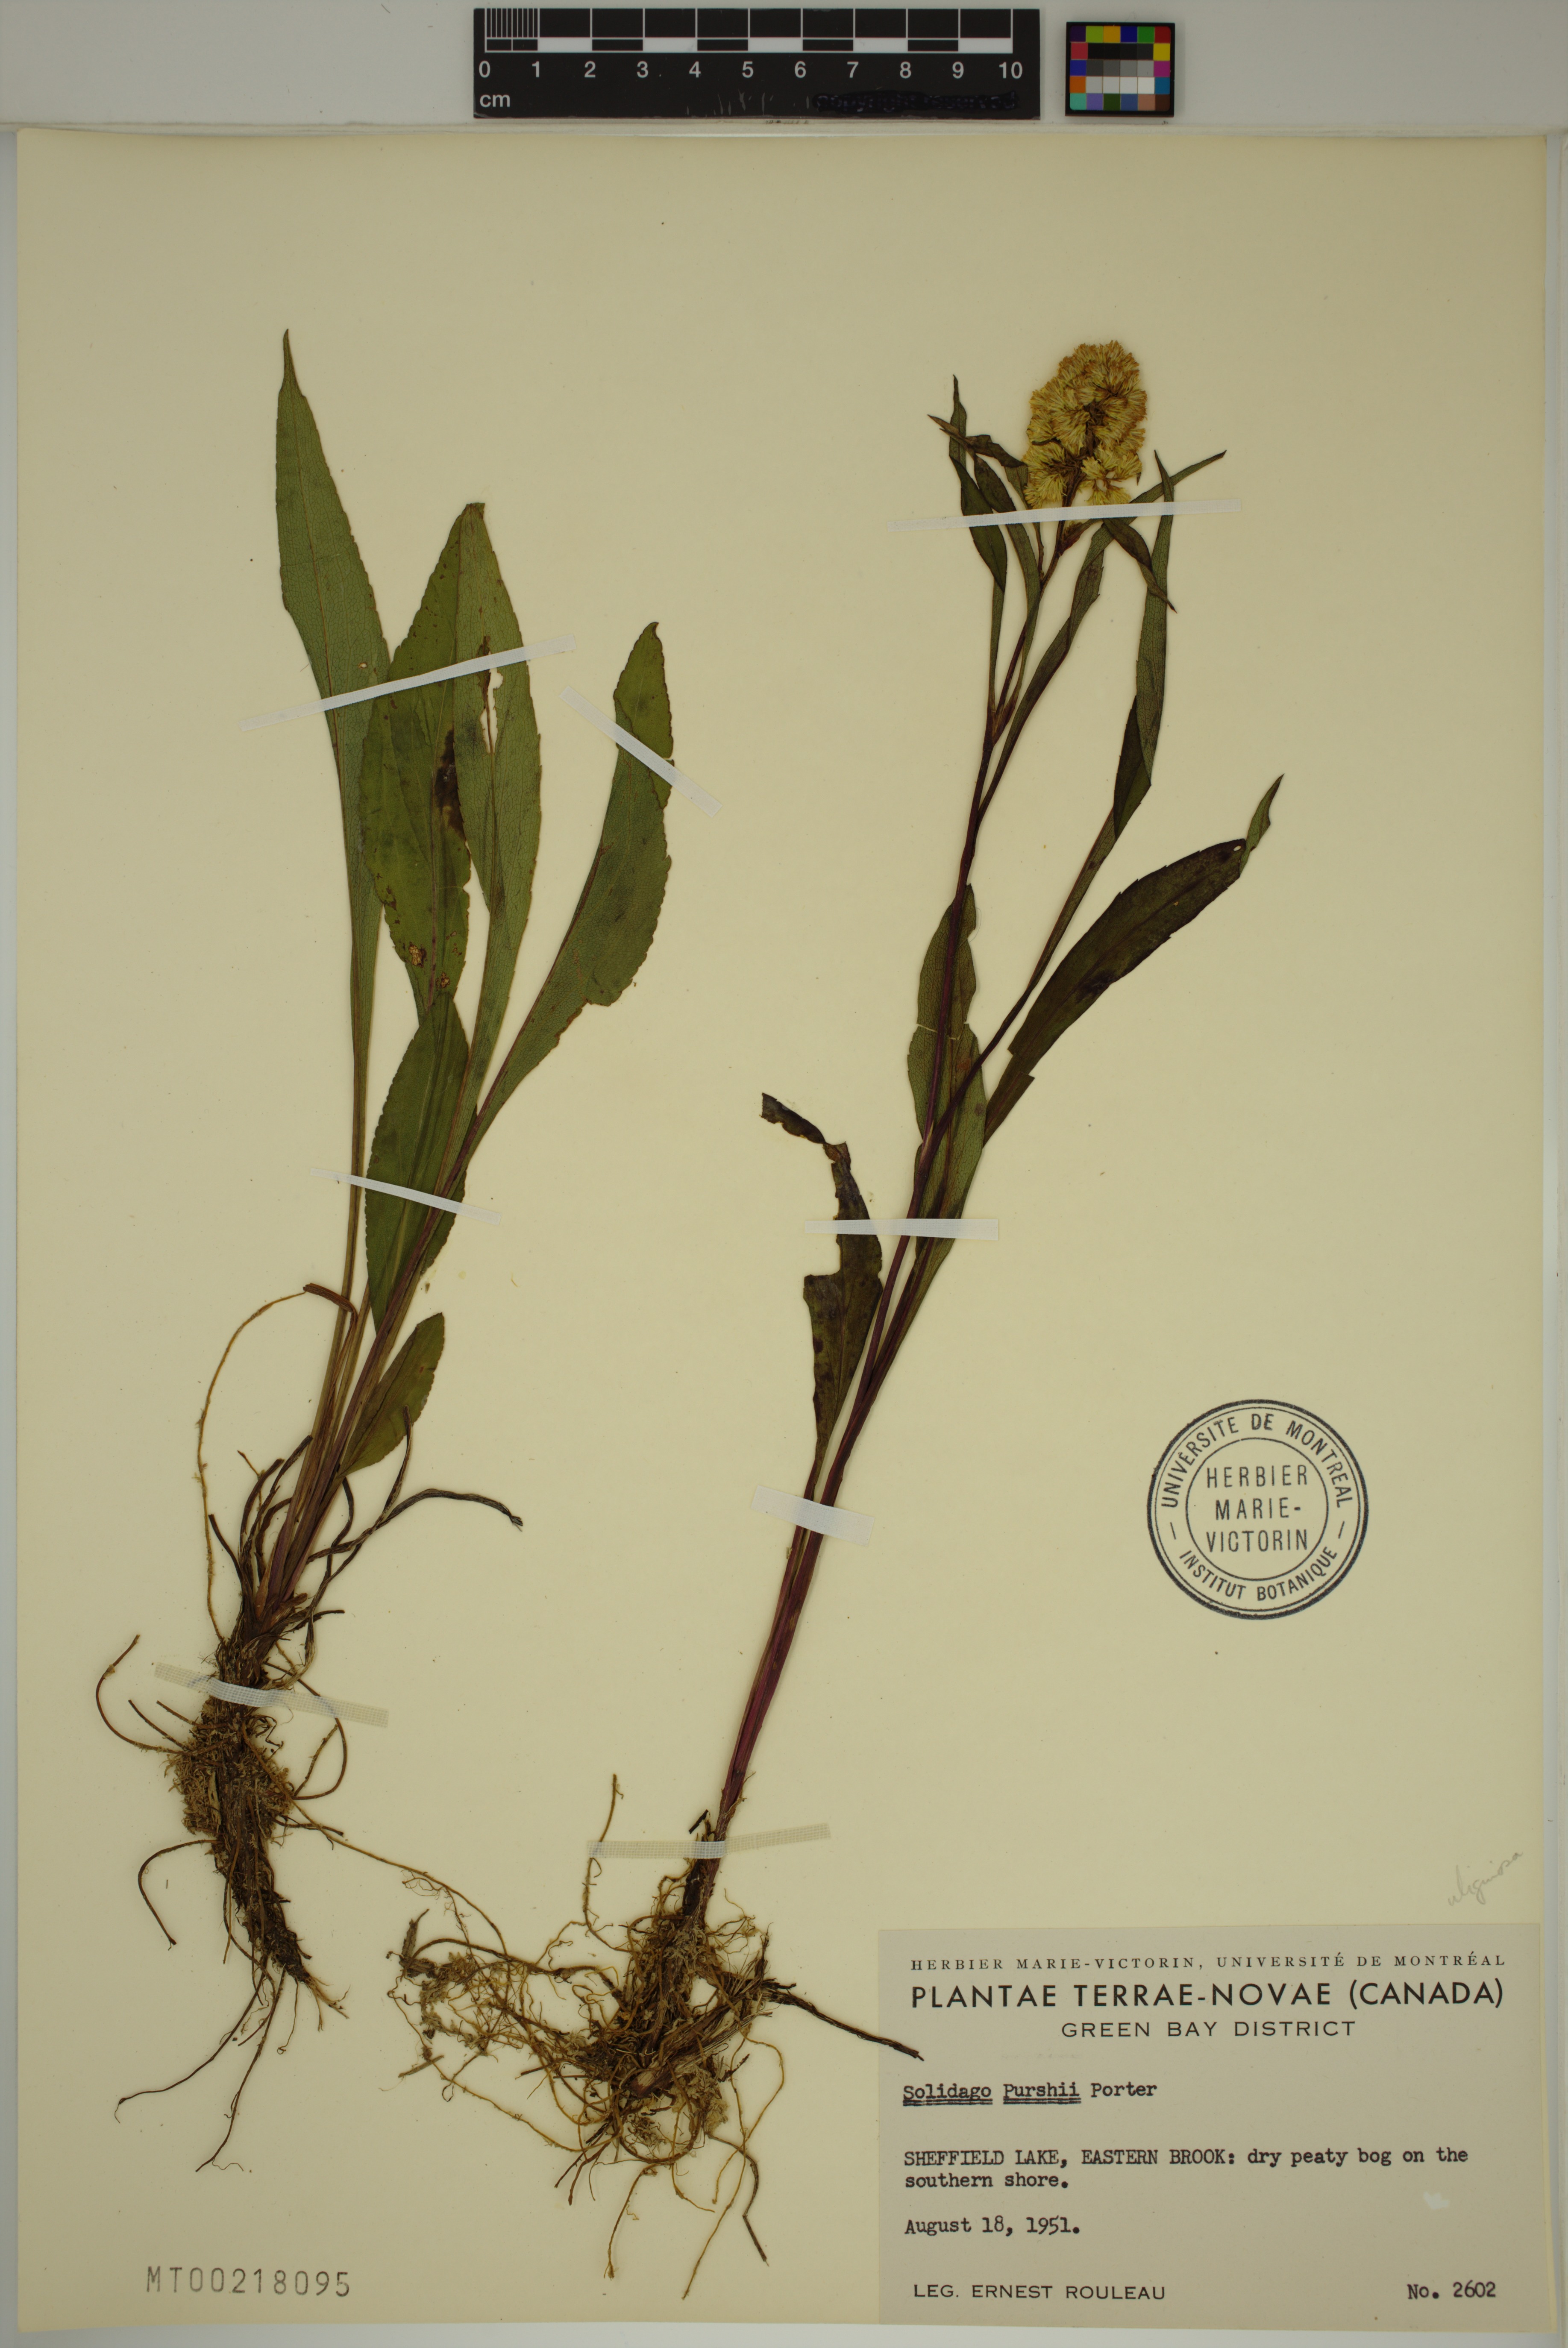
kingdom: Plantae
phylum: Tracheophyta
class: Magnoliopsida
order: Asterales
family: Asteraceae
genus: Solidago
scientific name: Solidago uliginosa
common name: Bog goldenrod
